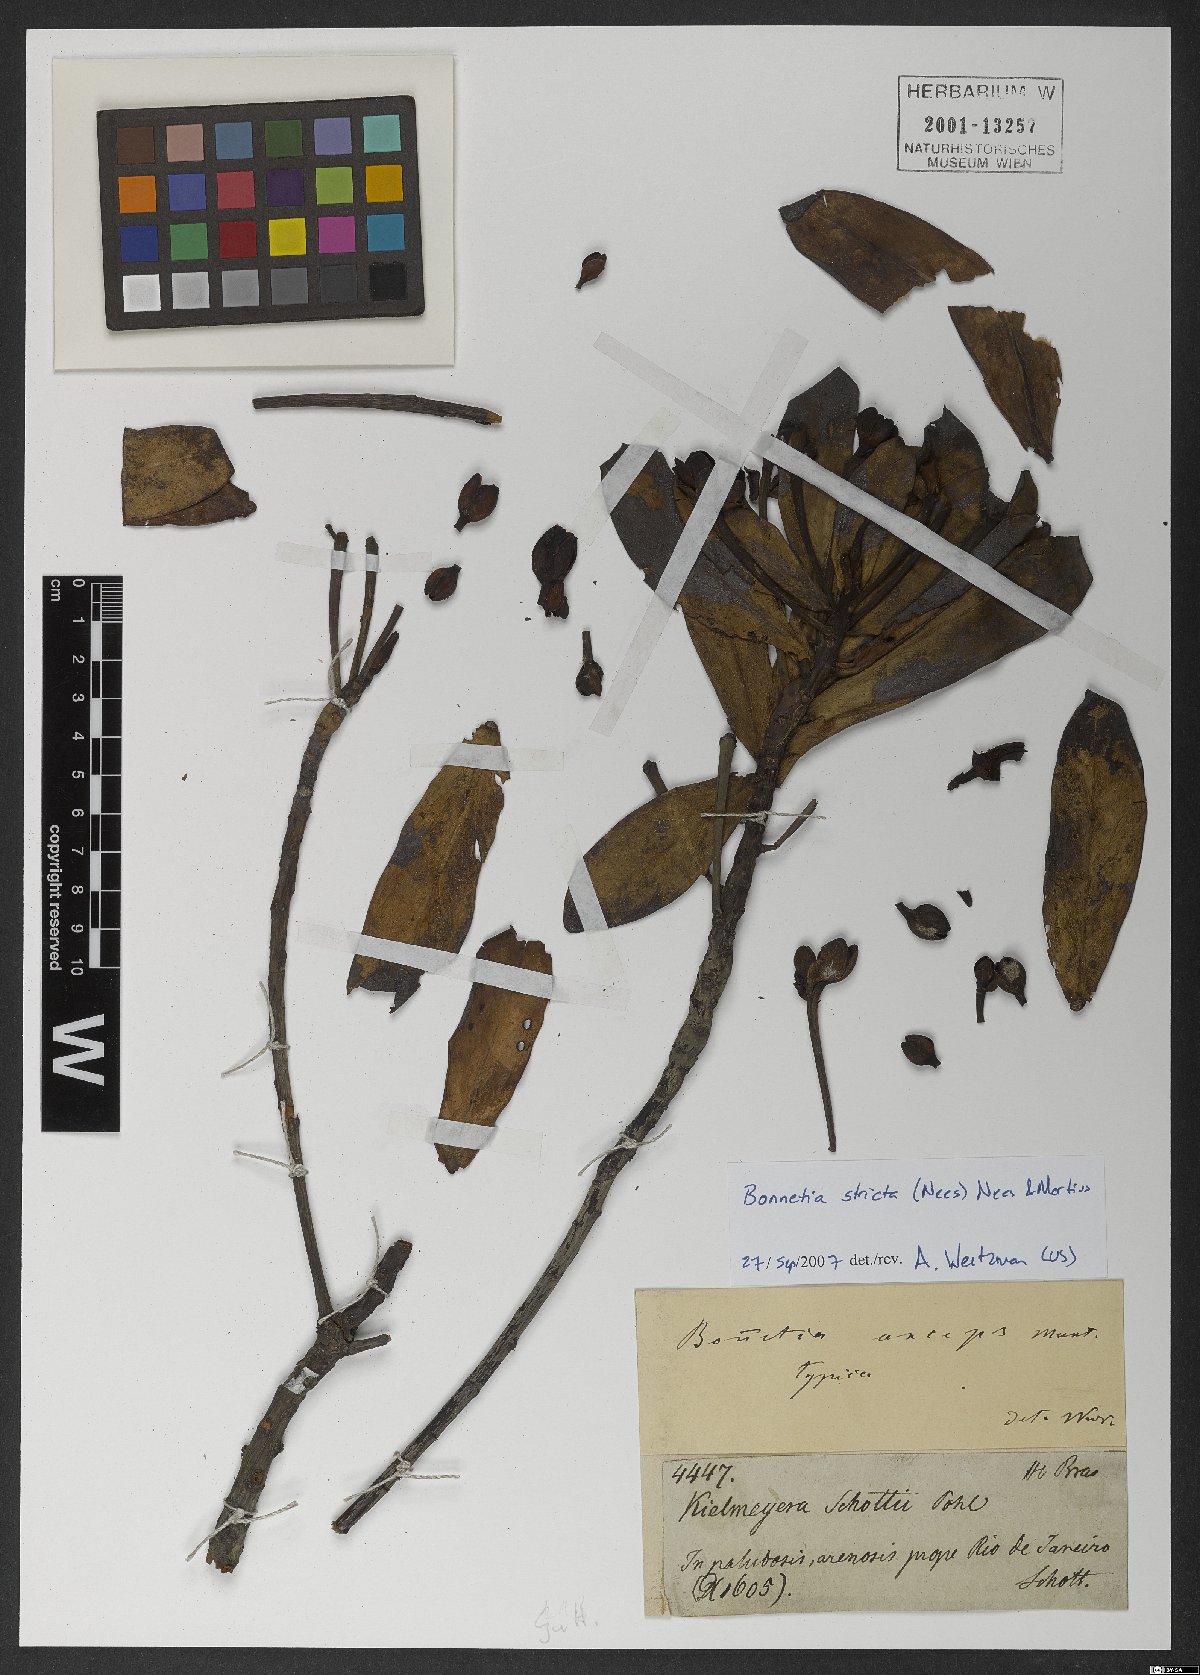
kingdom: Plantae
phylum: Tracheophyta
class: Magnoliopsida
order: Malpighiales
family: Bonnetiaceae
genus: Bonnetia
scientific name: Bonnetia stricta
